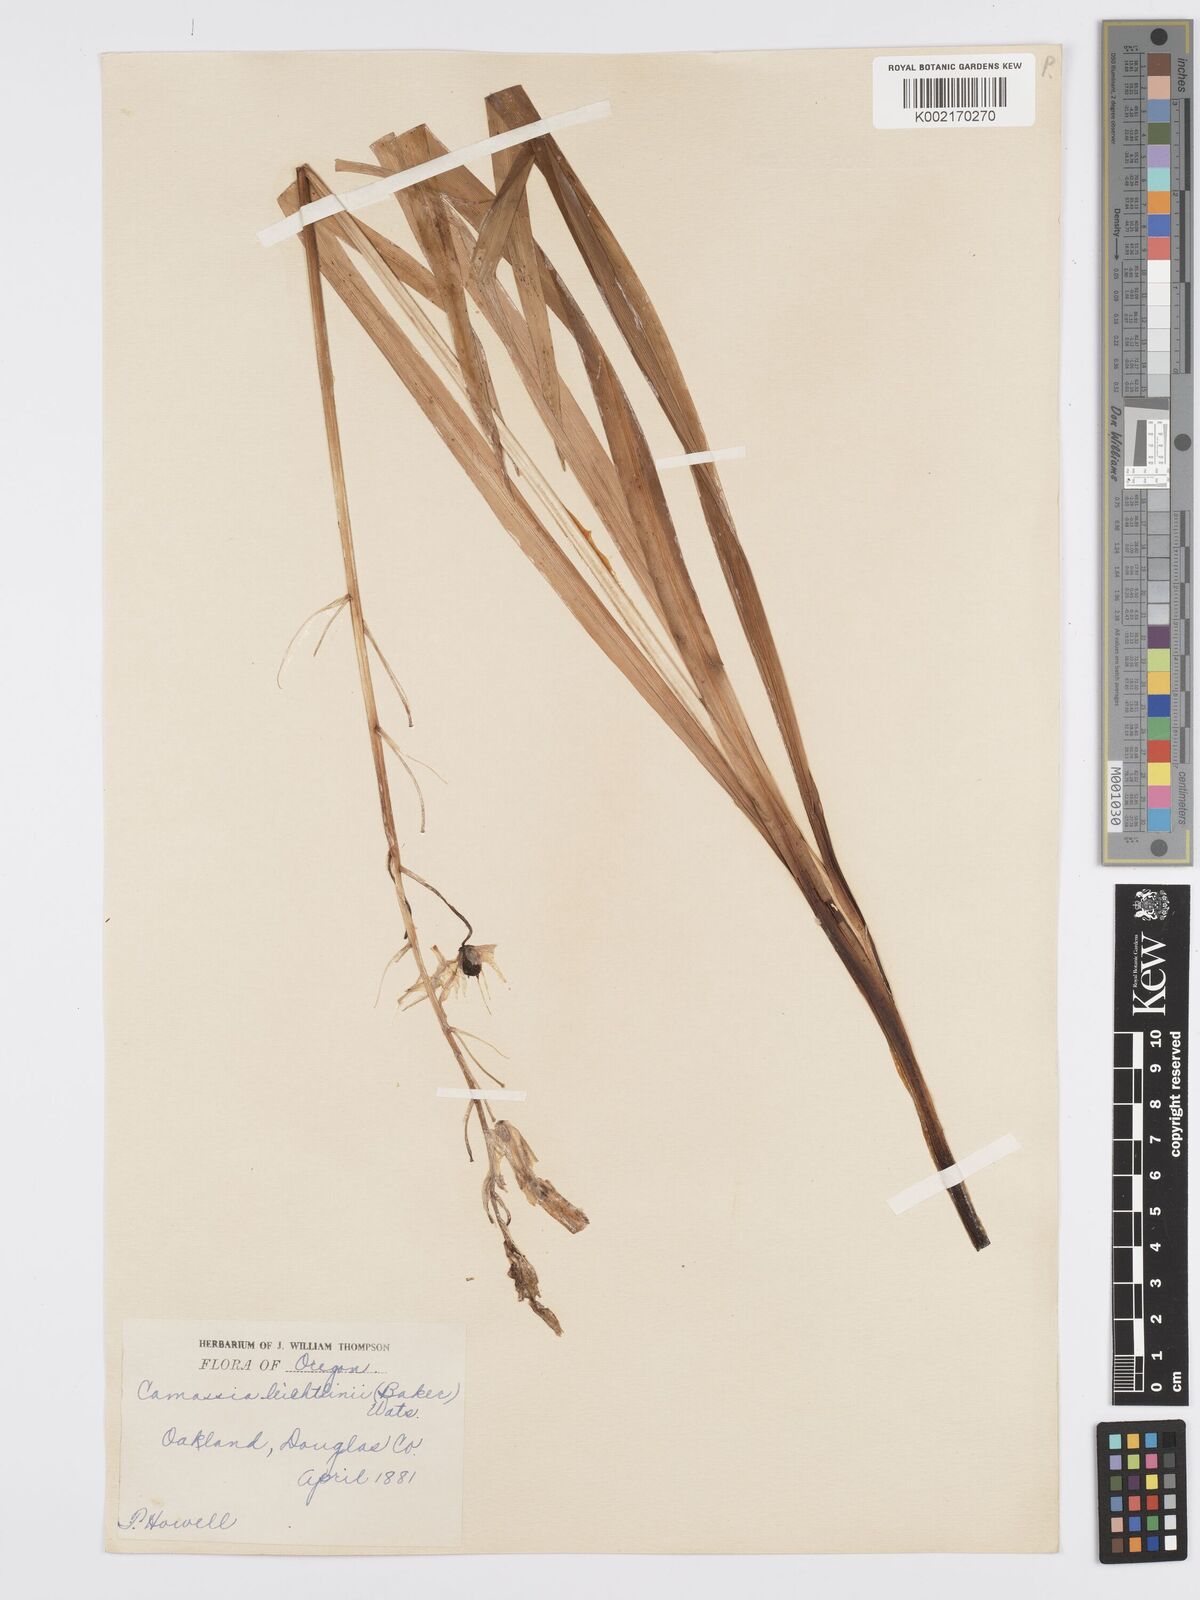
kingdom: Plantae
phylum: Tracheophyta
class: Liliopsida
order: Asparagales
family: Asparagaceae
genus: Camassia
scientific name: Camassia leichtlinii
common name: Leichtlin's camas
